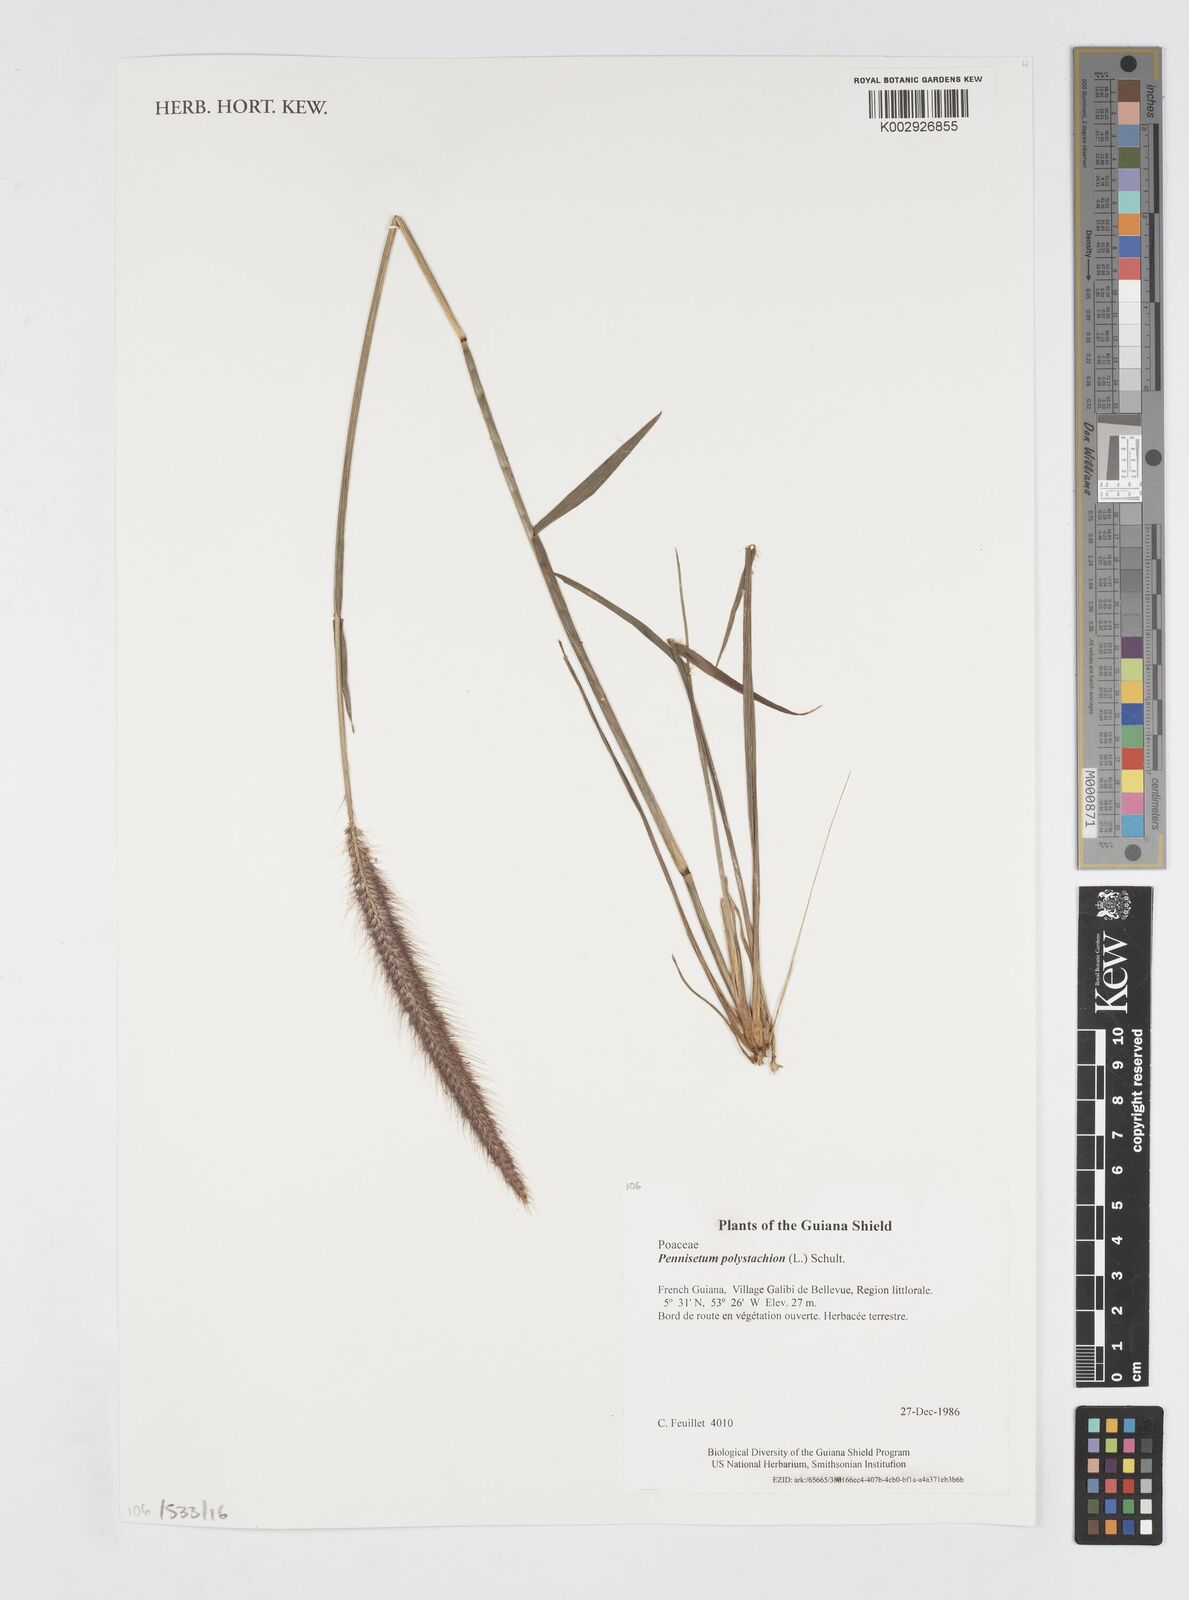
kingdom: Plantae
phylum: Tracheophyta
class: Liliopsida
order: Poales
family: Poaceae
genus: Cenchrus
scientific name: Cenchrus setosus
